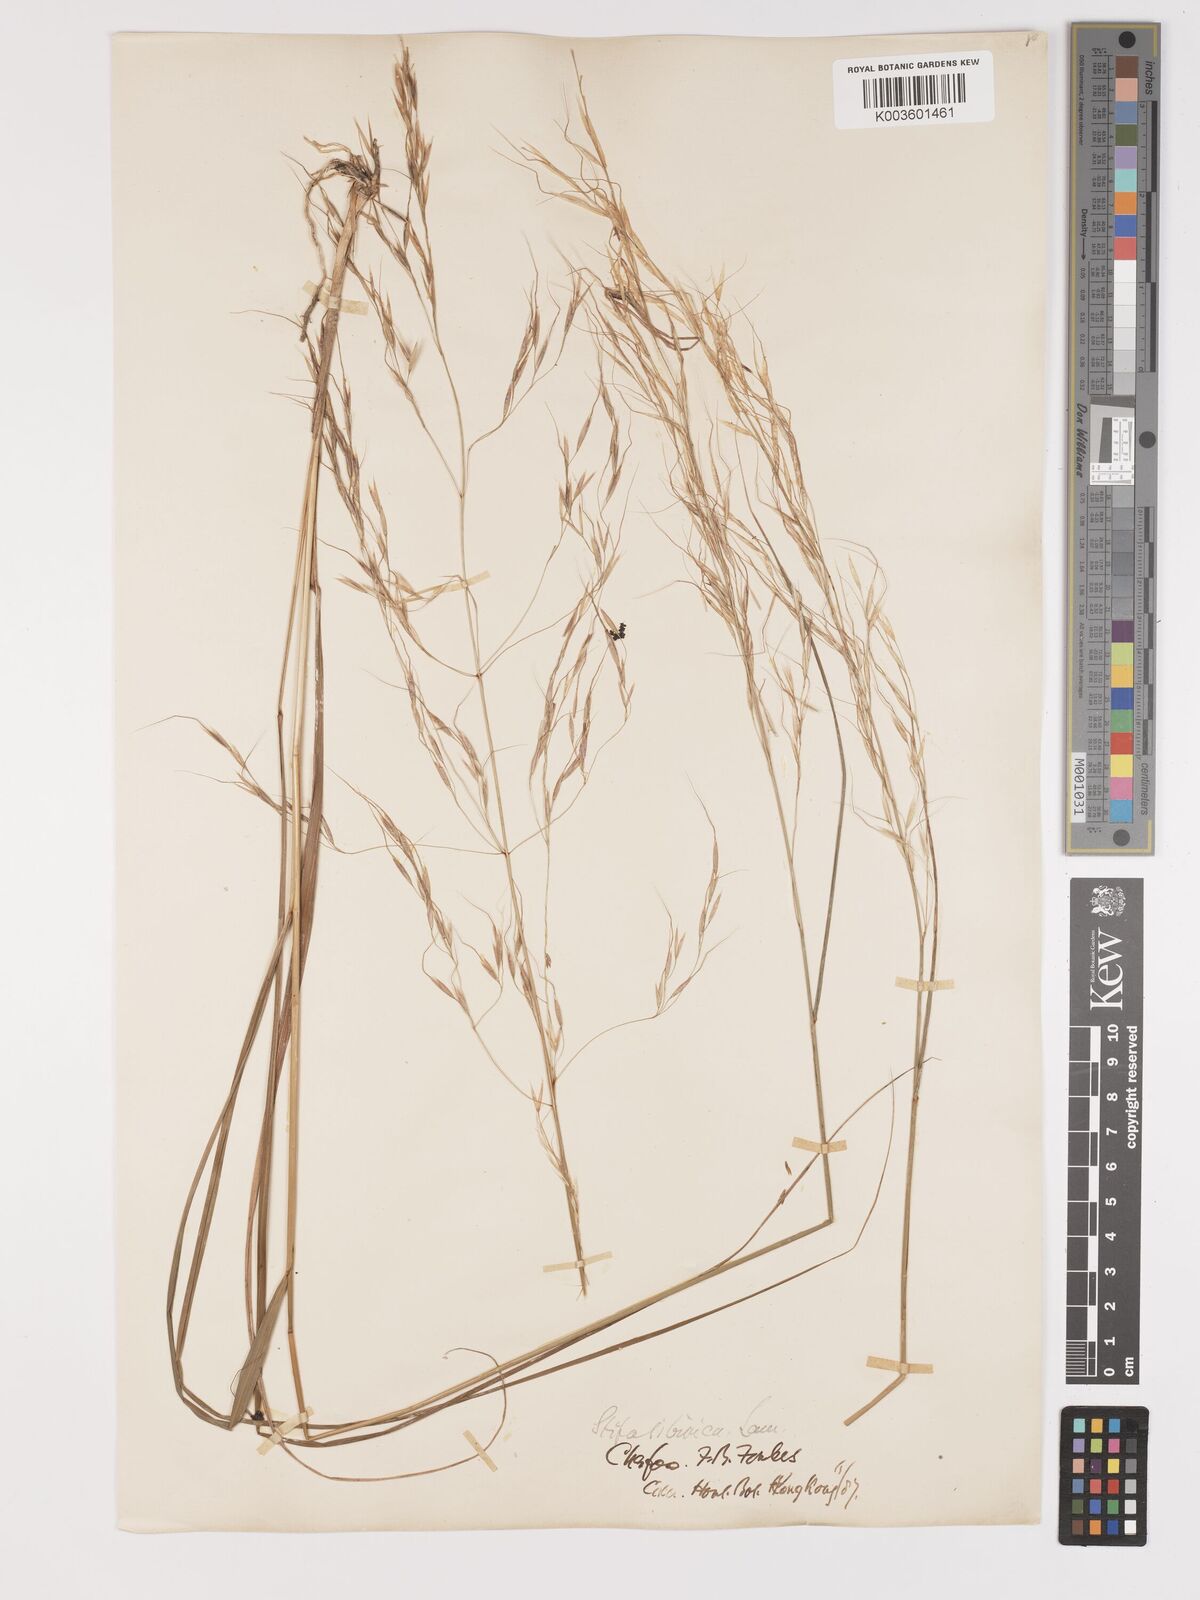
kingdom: Plantae
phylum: Tracheophyta
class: Liliopsida
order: Poales
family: Poaceae
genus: Achnatherum
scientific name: Achnatherum pekinense
